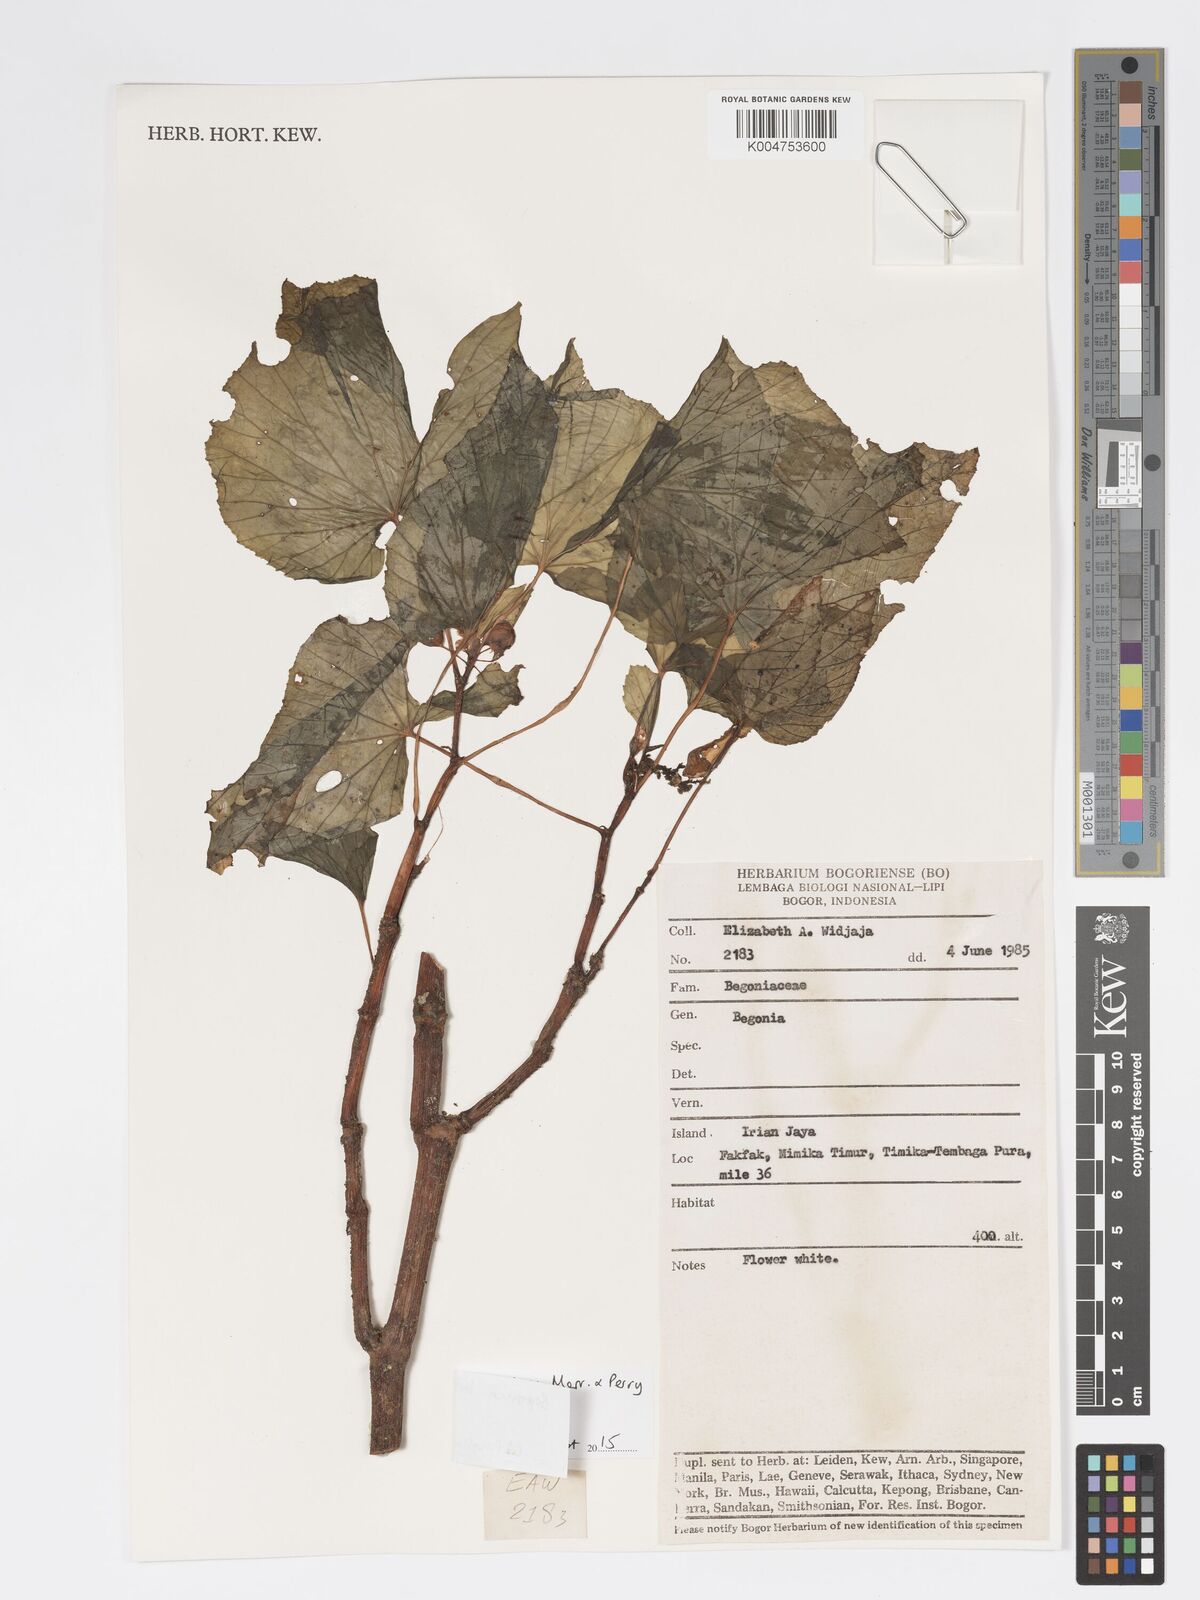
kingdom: Plantae
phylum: Tracheophyta
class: Magnoliopsida
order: Cucurbitales
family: Begoniaceae
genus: Begonia
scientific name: Begonia brachybotrys
